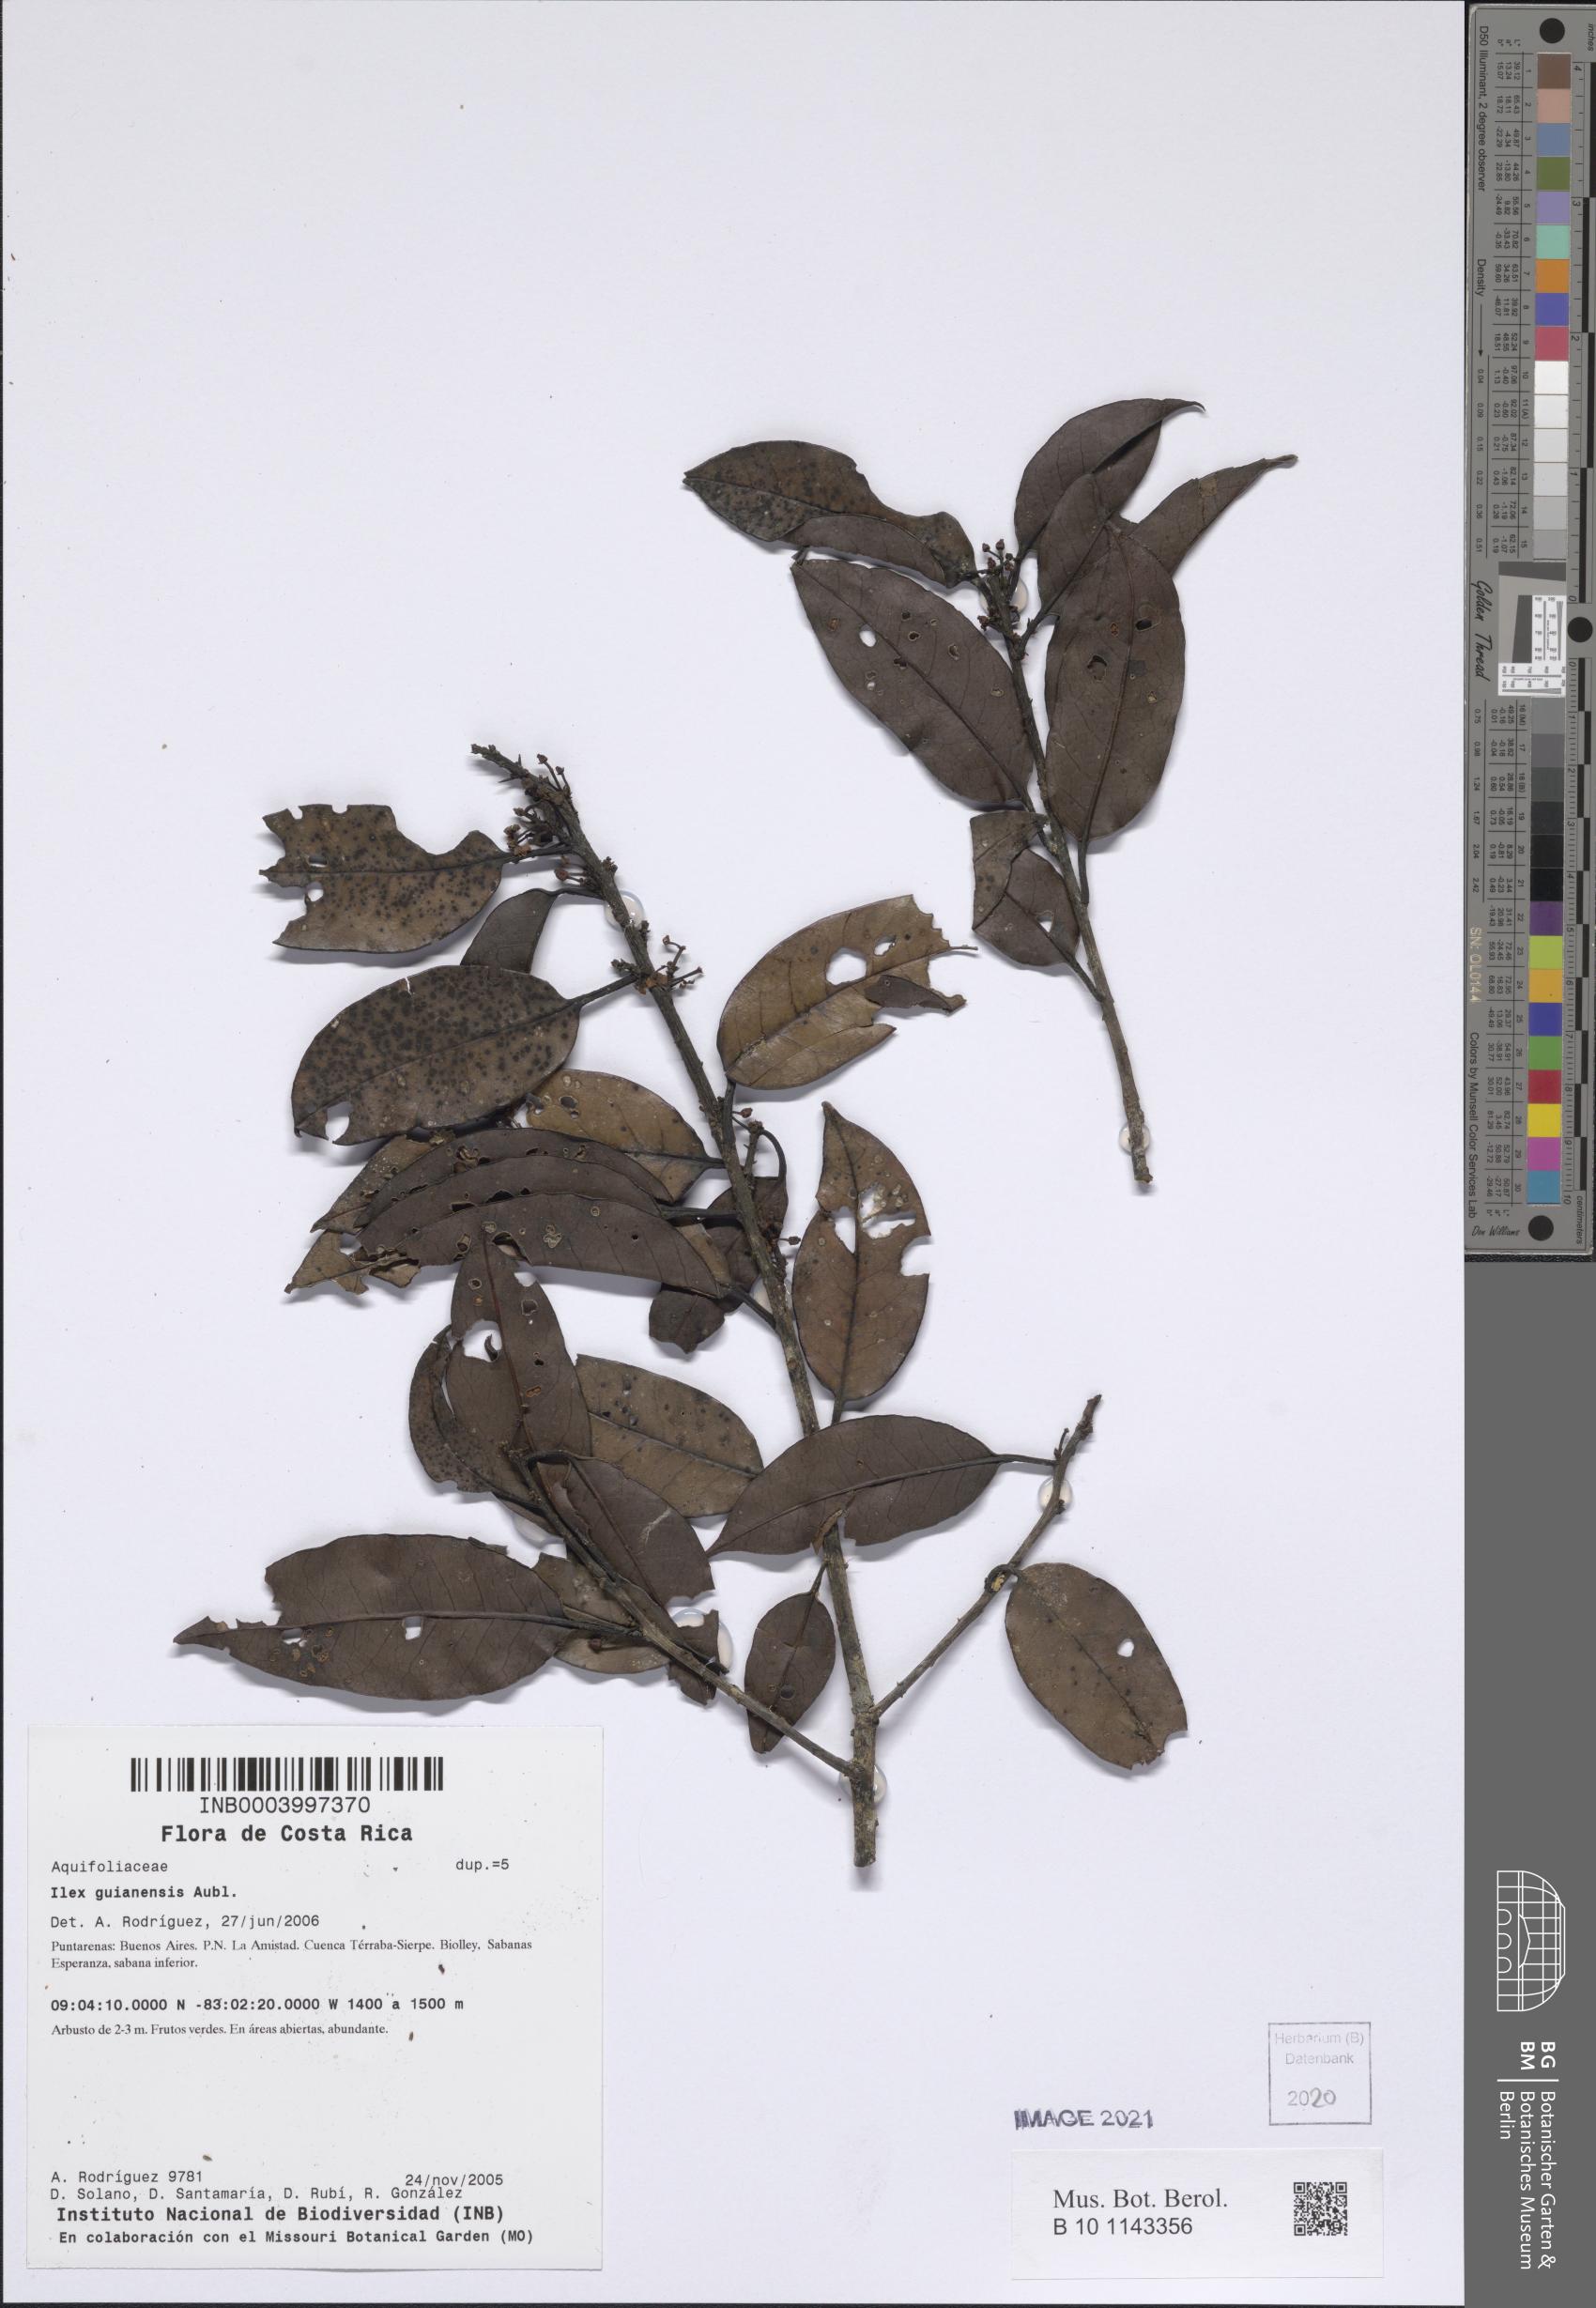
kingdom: Plantae
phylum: Tracheophyta
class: Magnoliopsida
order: Aquifoliales
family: Aquifoliaceae
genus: Ilex
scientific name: Ilex guianensis
